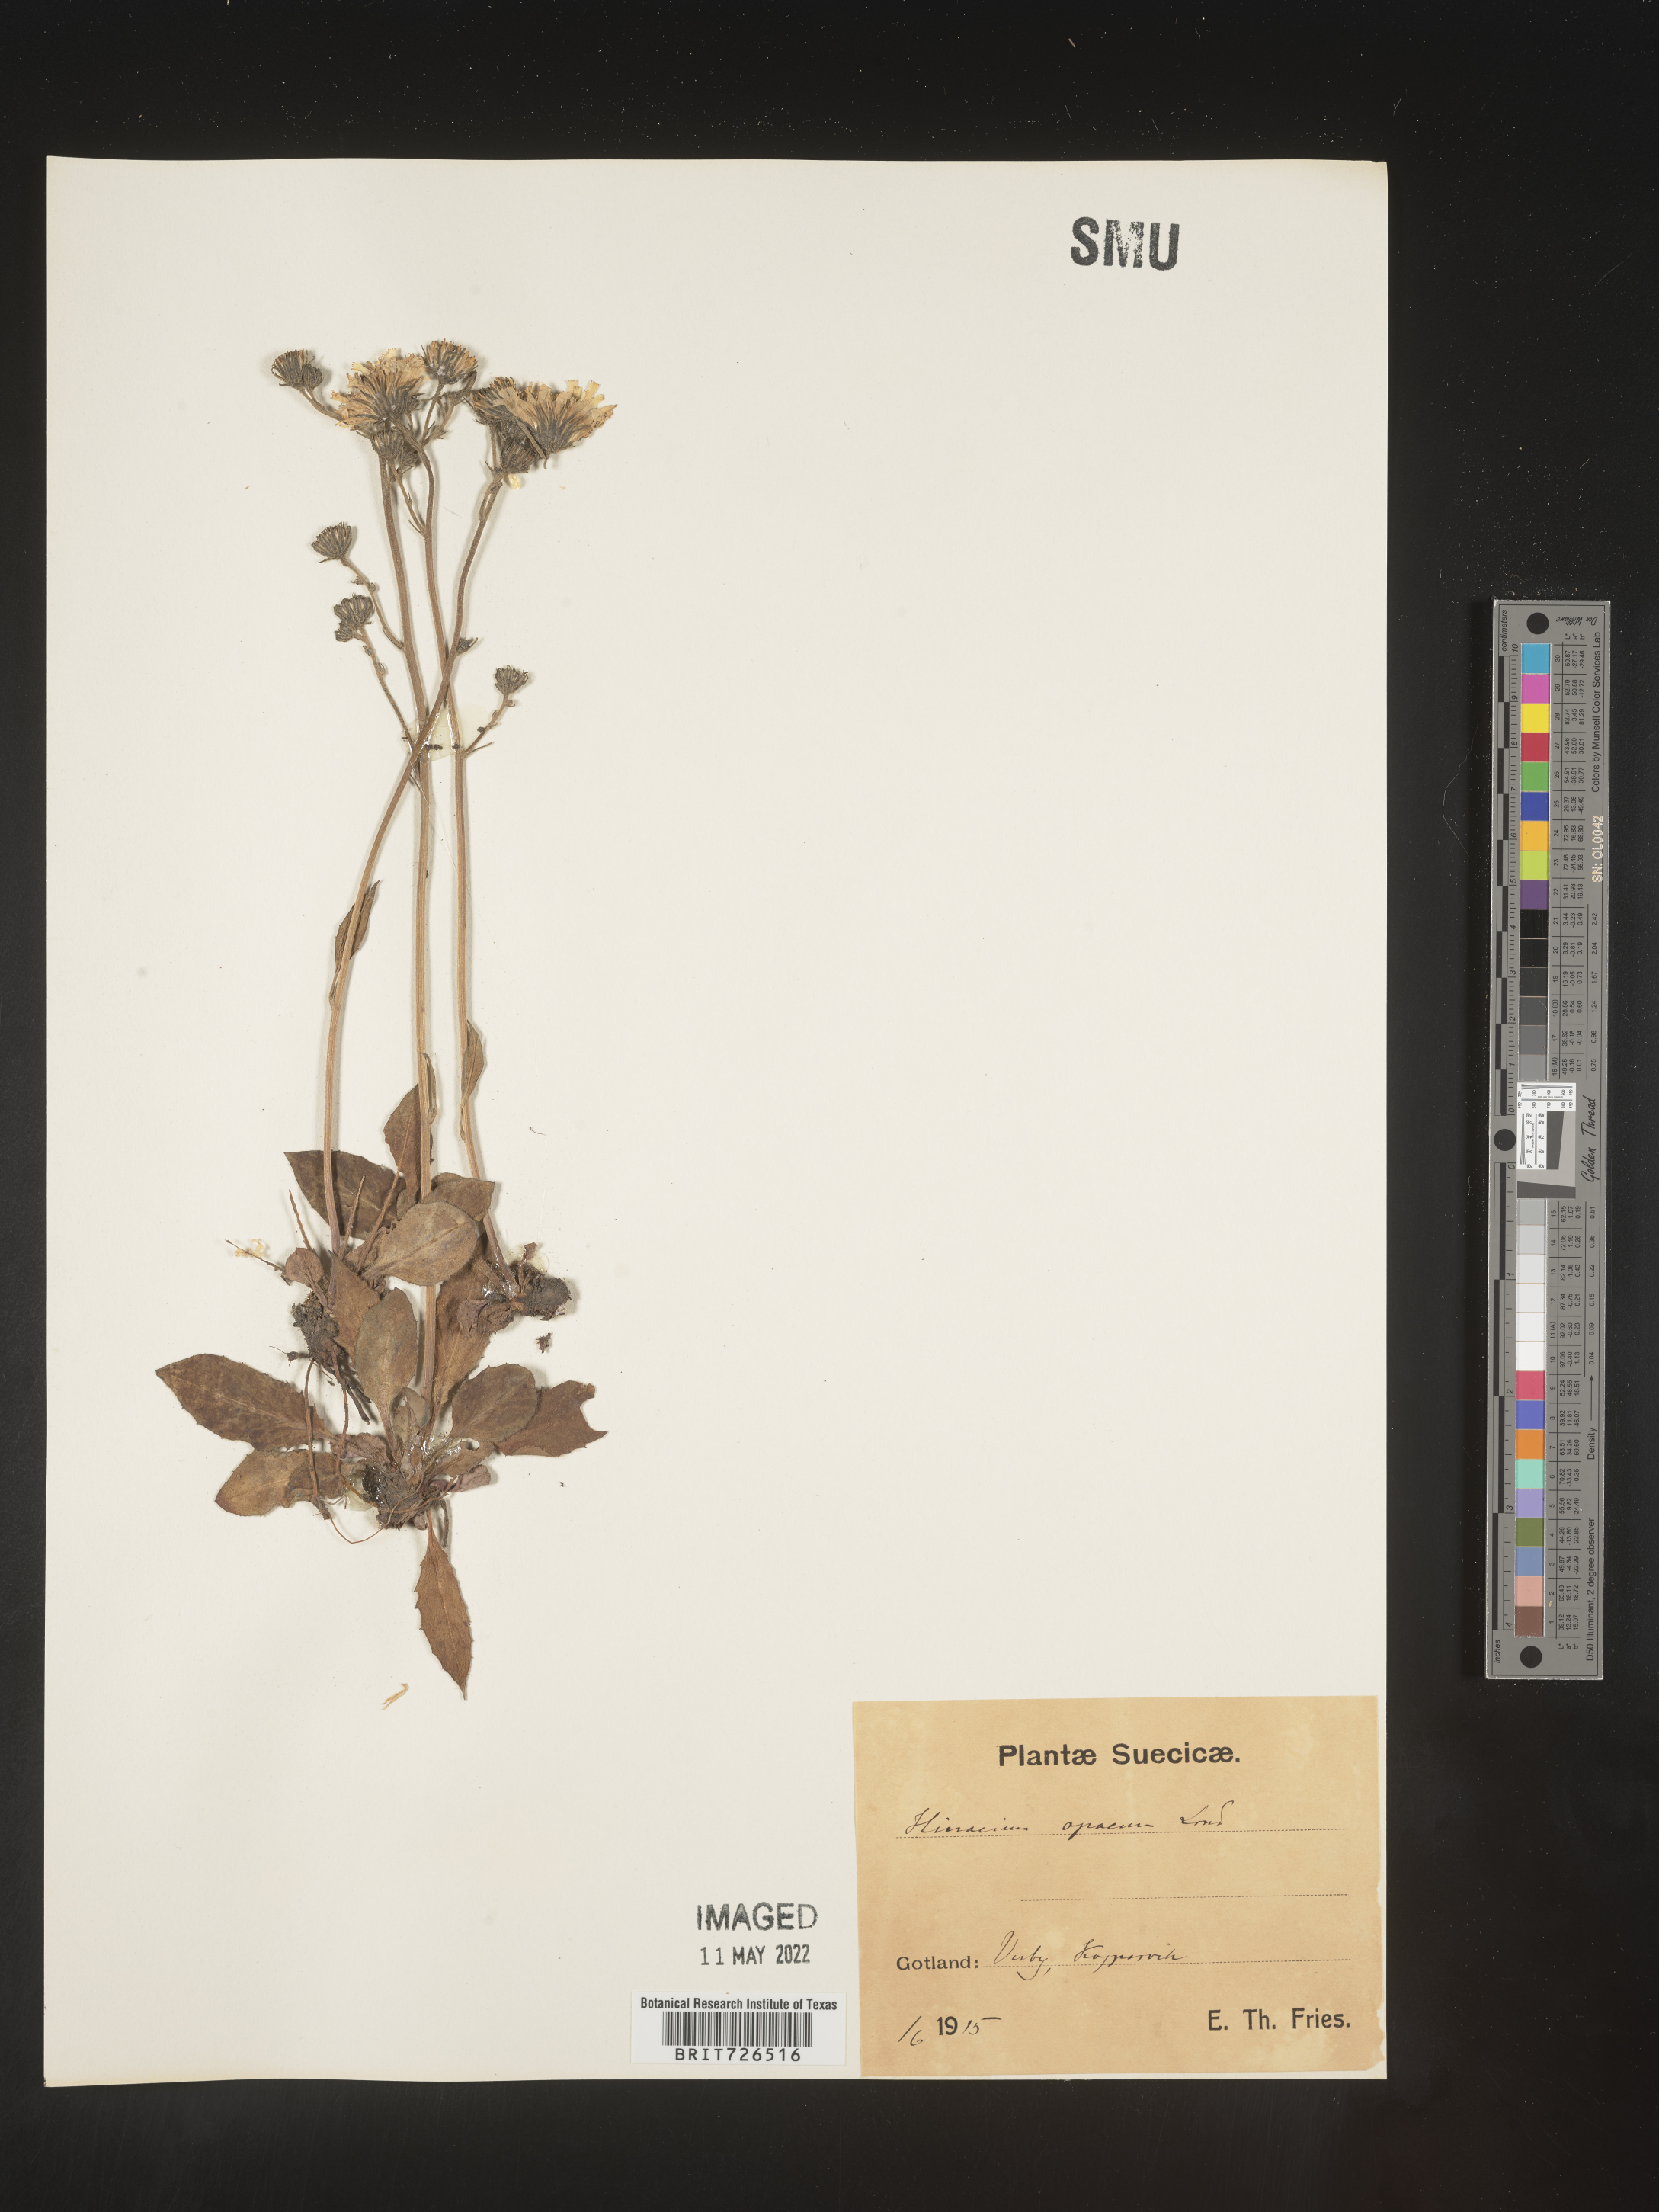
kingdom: Plantae
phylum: Tracheophyta
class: Magnoliopsida
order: Asterales
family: Asteraceae
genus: Hieracium
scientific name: Hieracium
